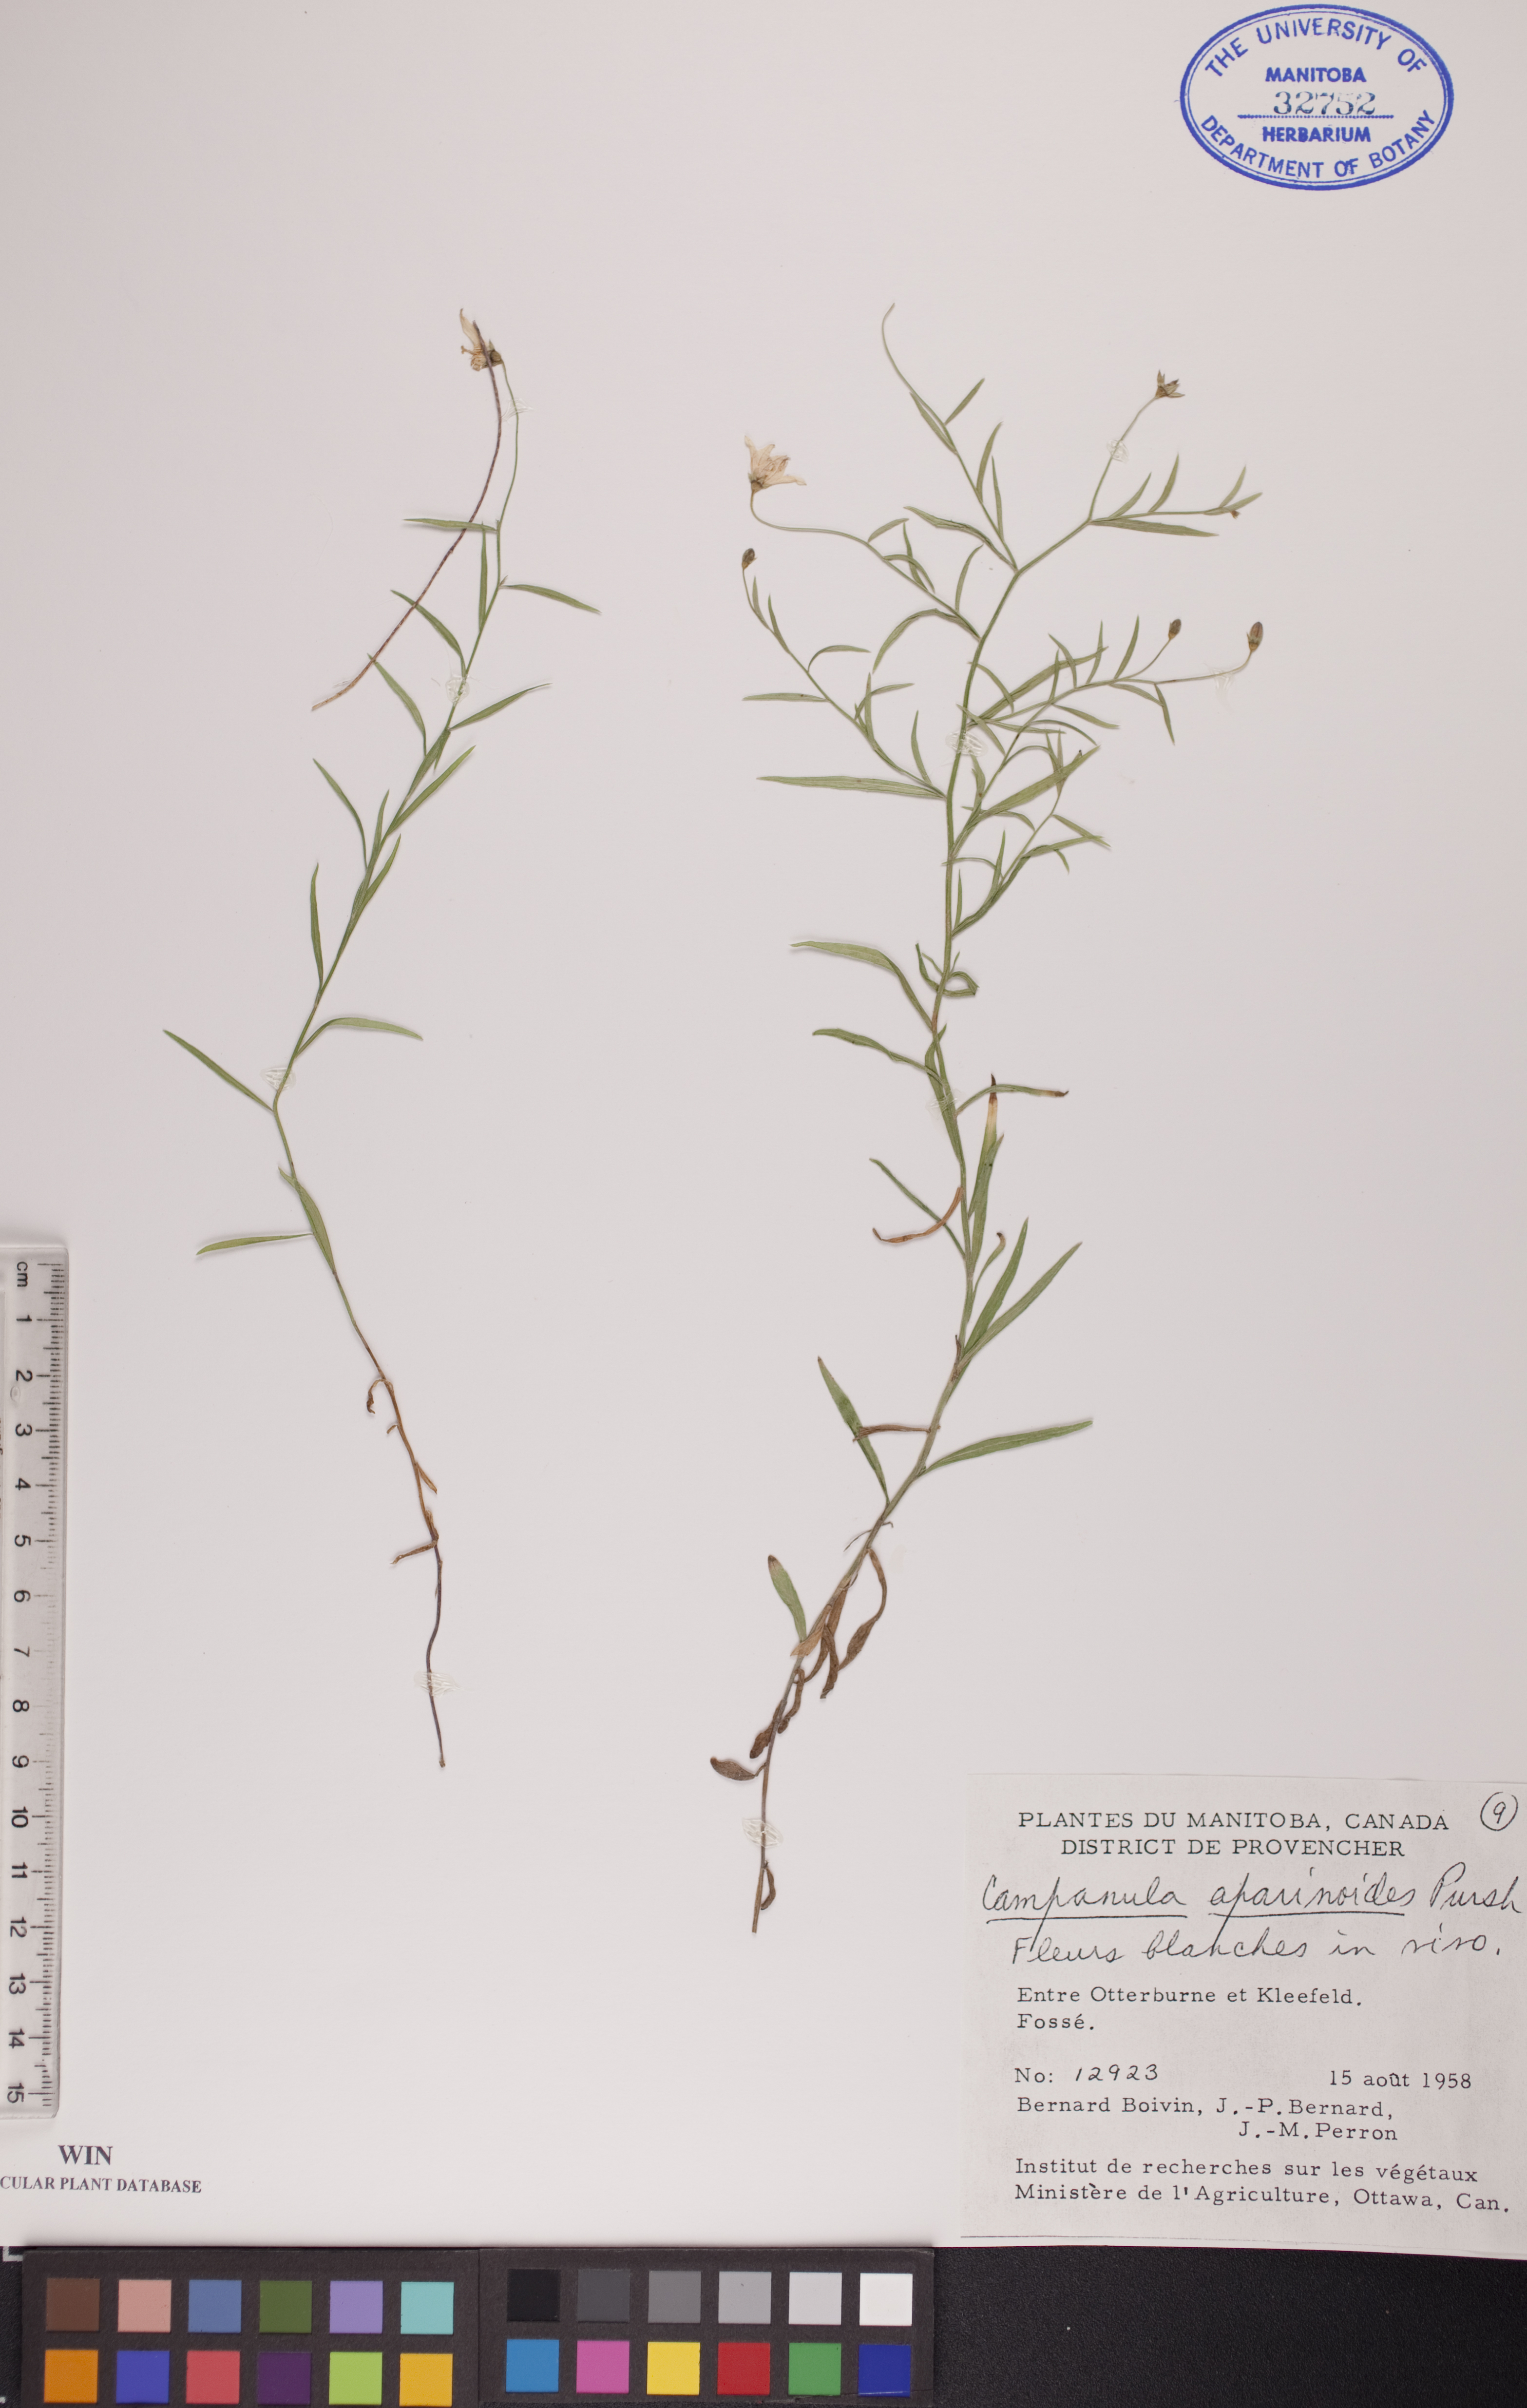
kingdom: Plantae
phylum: Tracheophyta
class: Magnoliopsida
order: Asterales
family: Campanulaceae
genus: Palustricodon
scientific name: Palustricodon aparinoides
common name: Bedstraw bellflower
